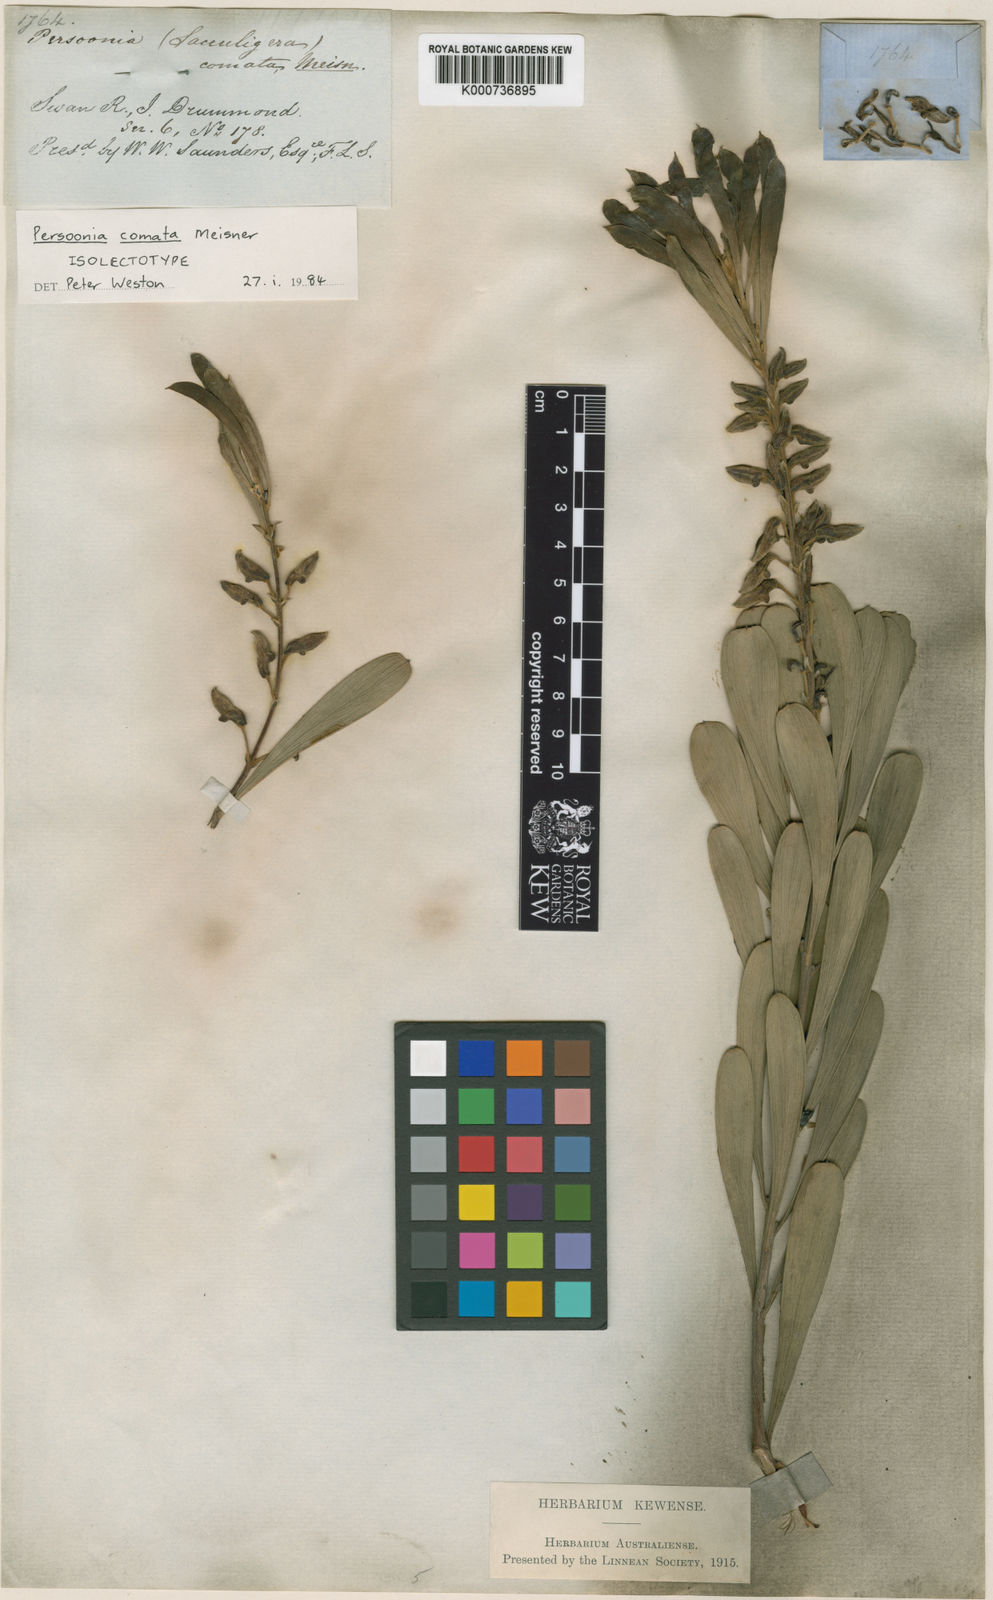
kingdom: Plantae
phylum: Tracheophyta
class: Magnoliopsida
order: Proteales
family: Proteaceae
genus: Persoonia
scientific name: Persoonia comata
